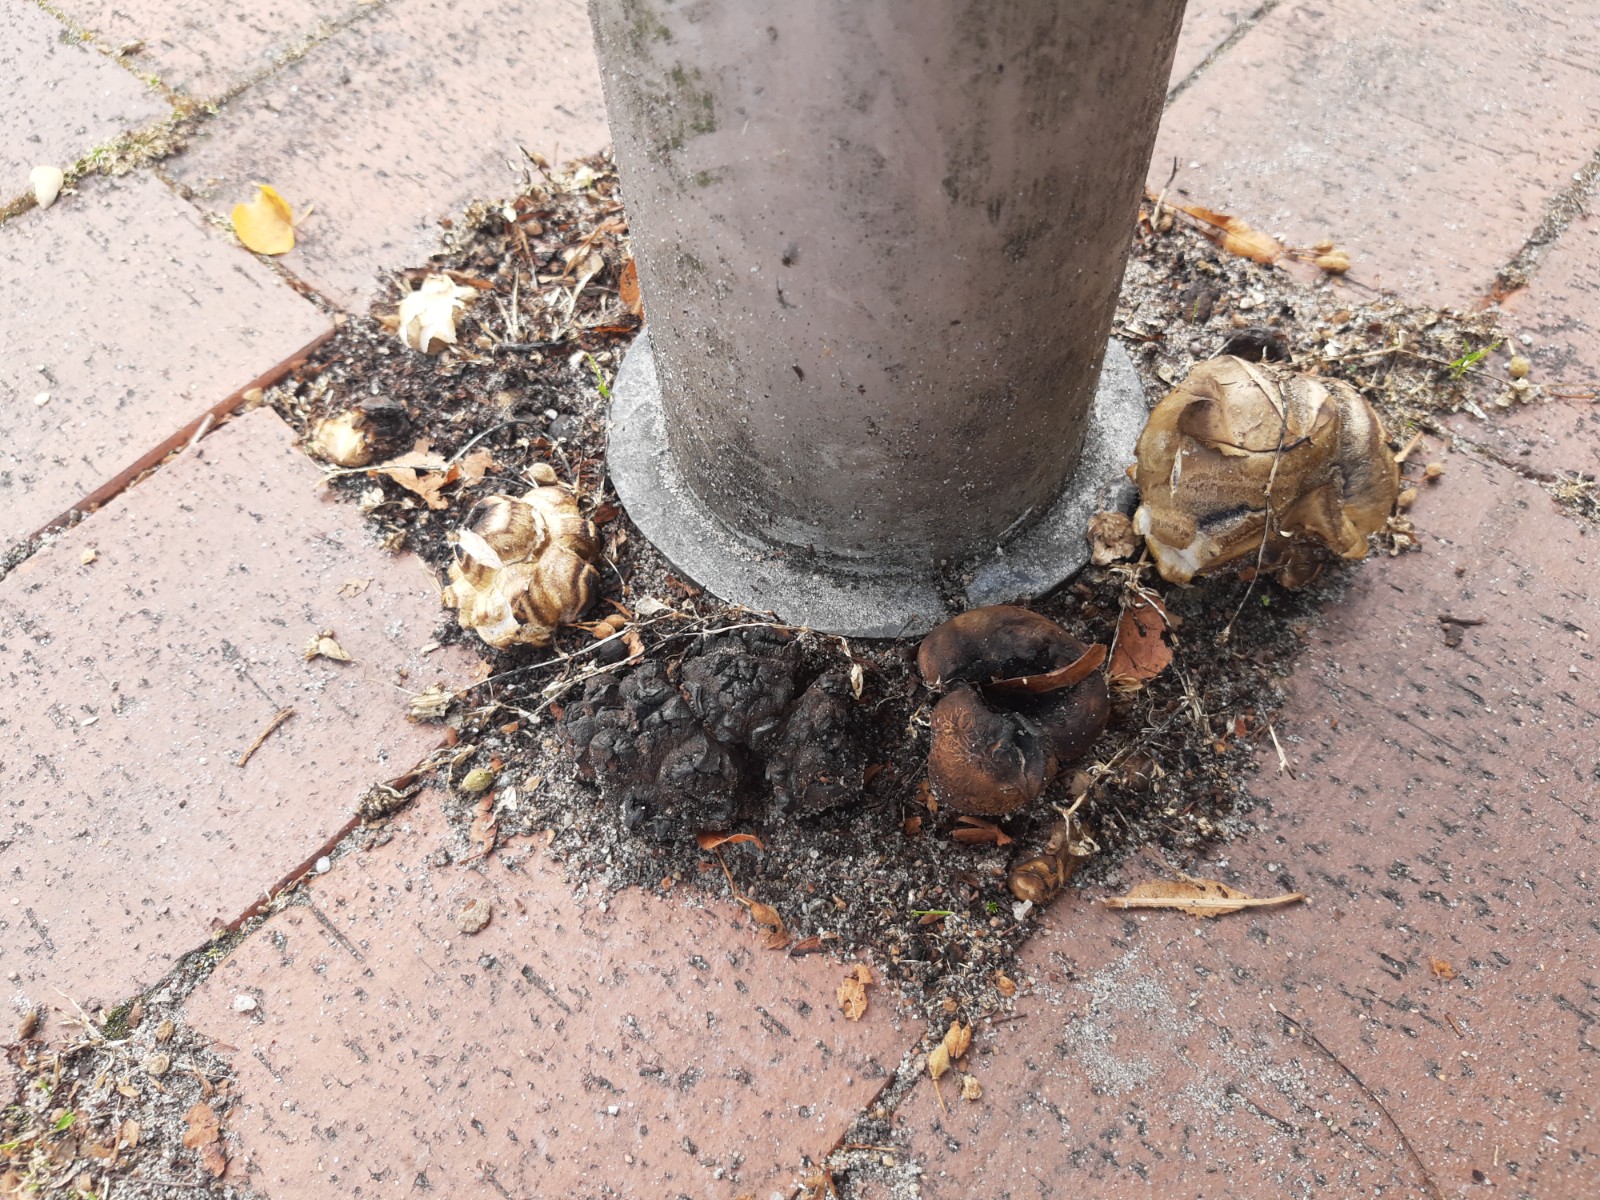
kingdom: Fungi
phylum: Basidiomycota
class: Agaricomycetes
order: Boletales
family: Sclerodermataceae
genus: Scleroderma
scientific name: Scleroderma bovista
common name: bovist-bruskbold
